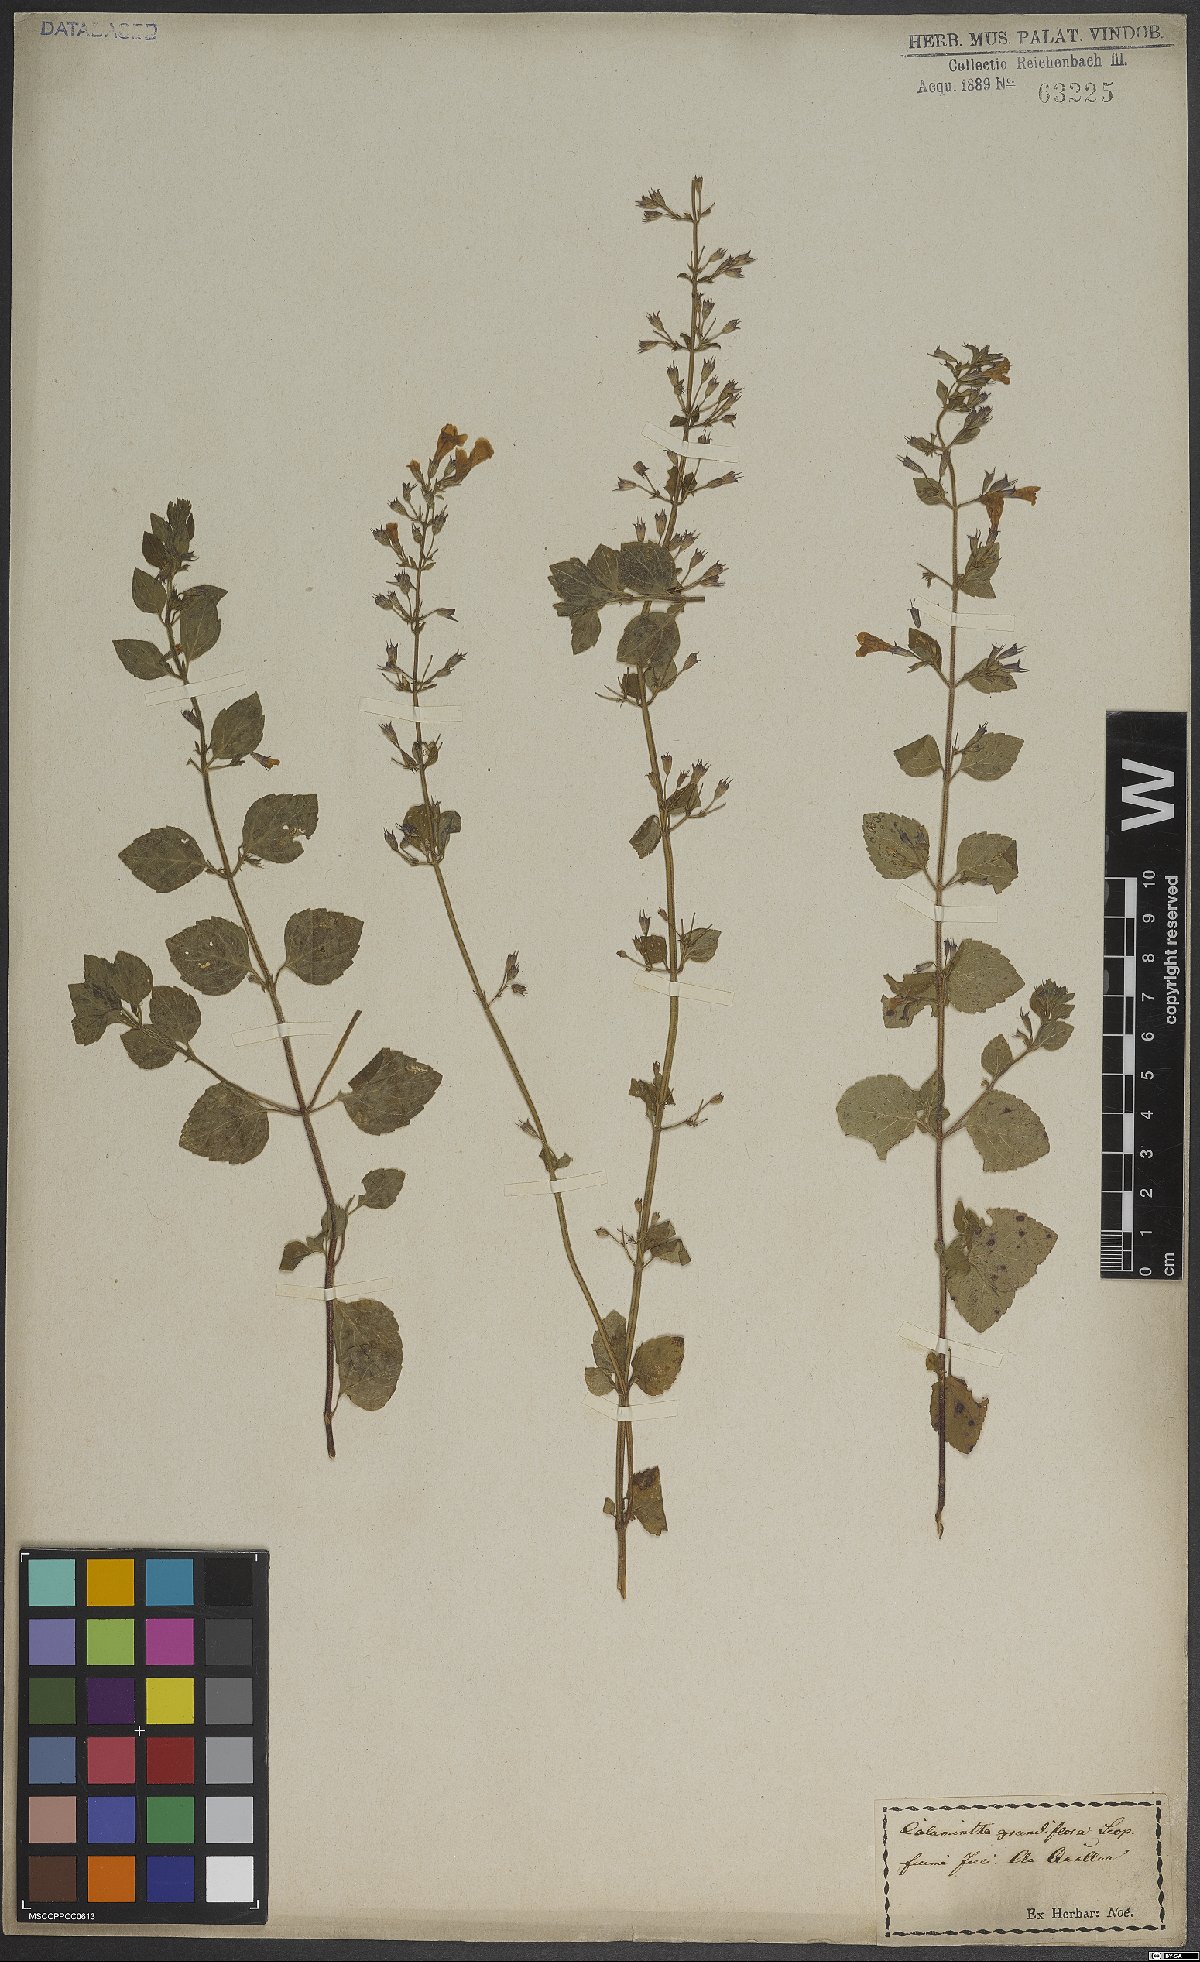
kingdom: Plantae
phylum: Tracheophyta
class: Magnoliopsida
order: Lamiales
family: Lamiaceae
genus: Clinopodium
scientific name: Clinopodium menthifolium
